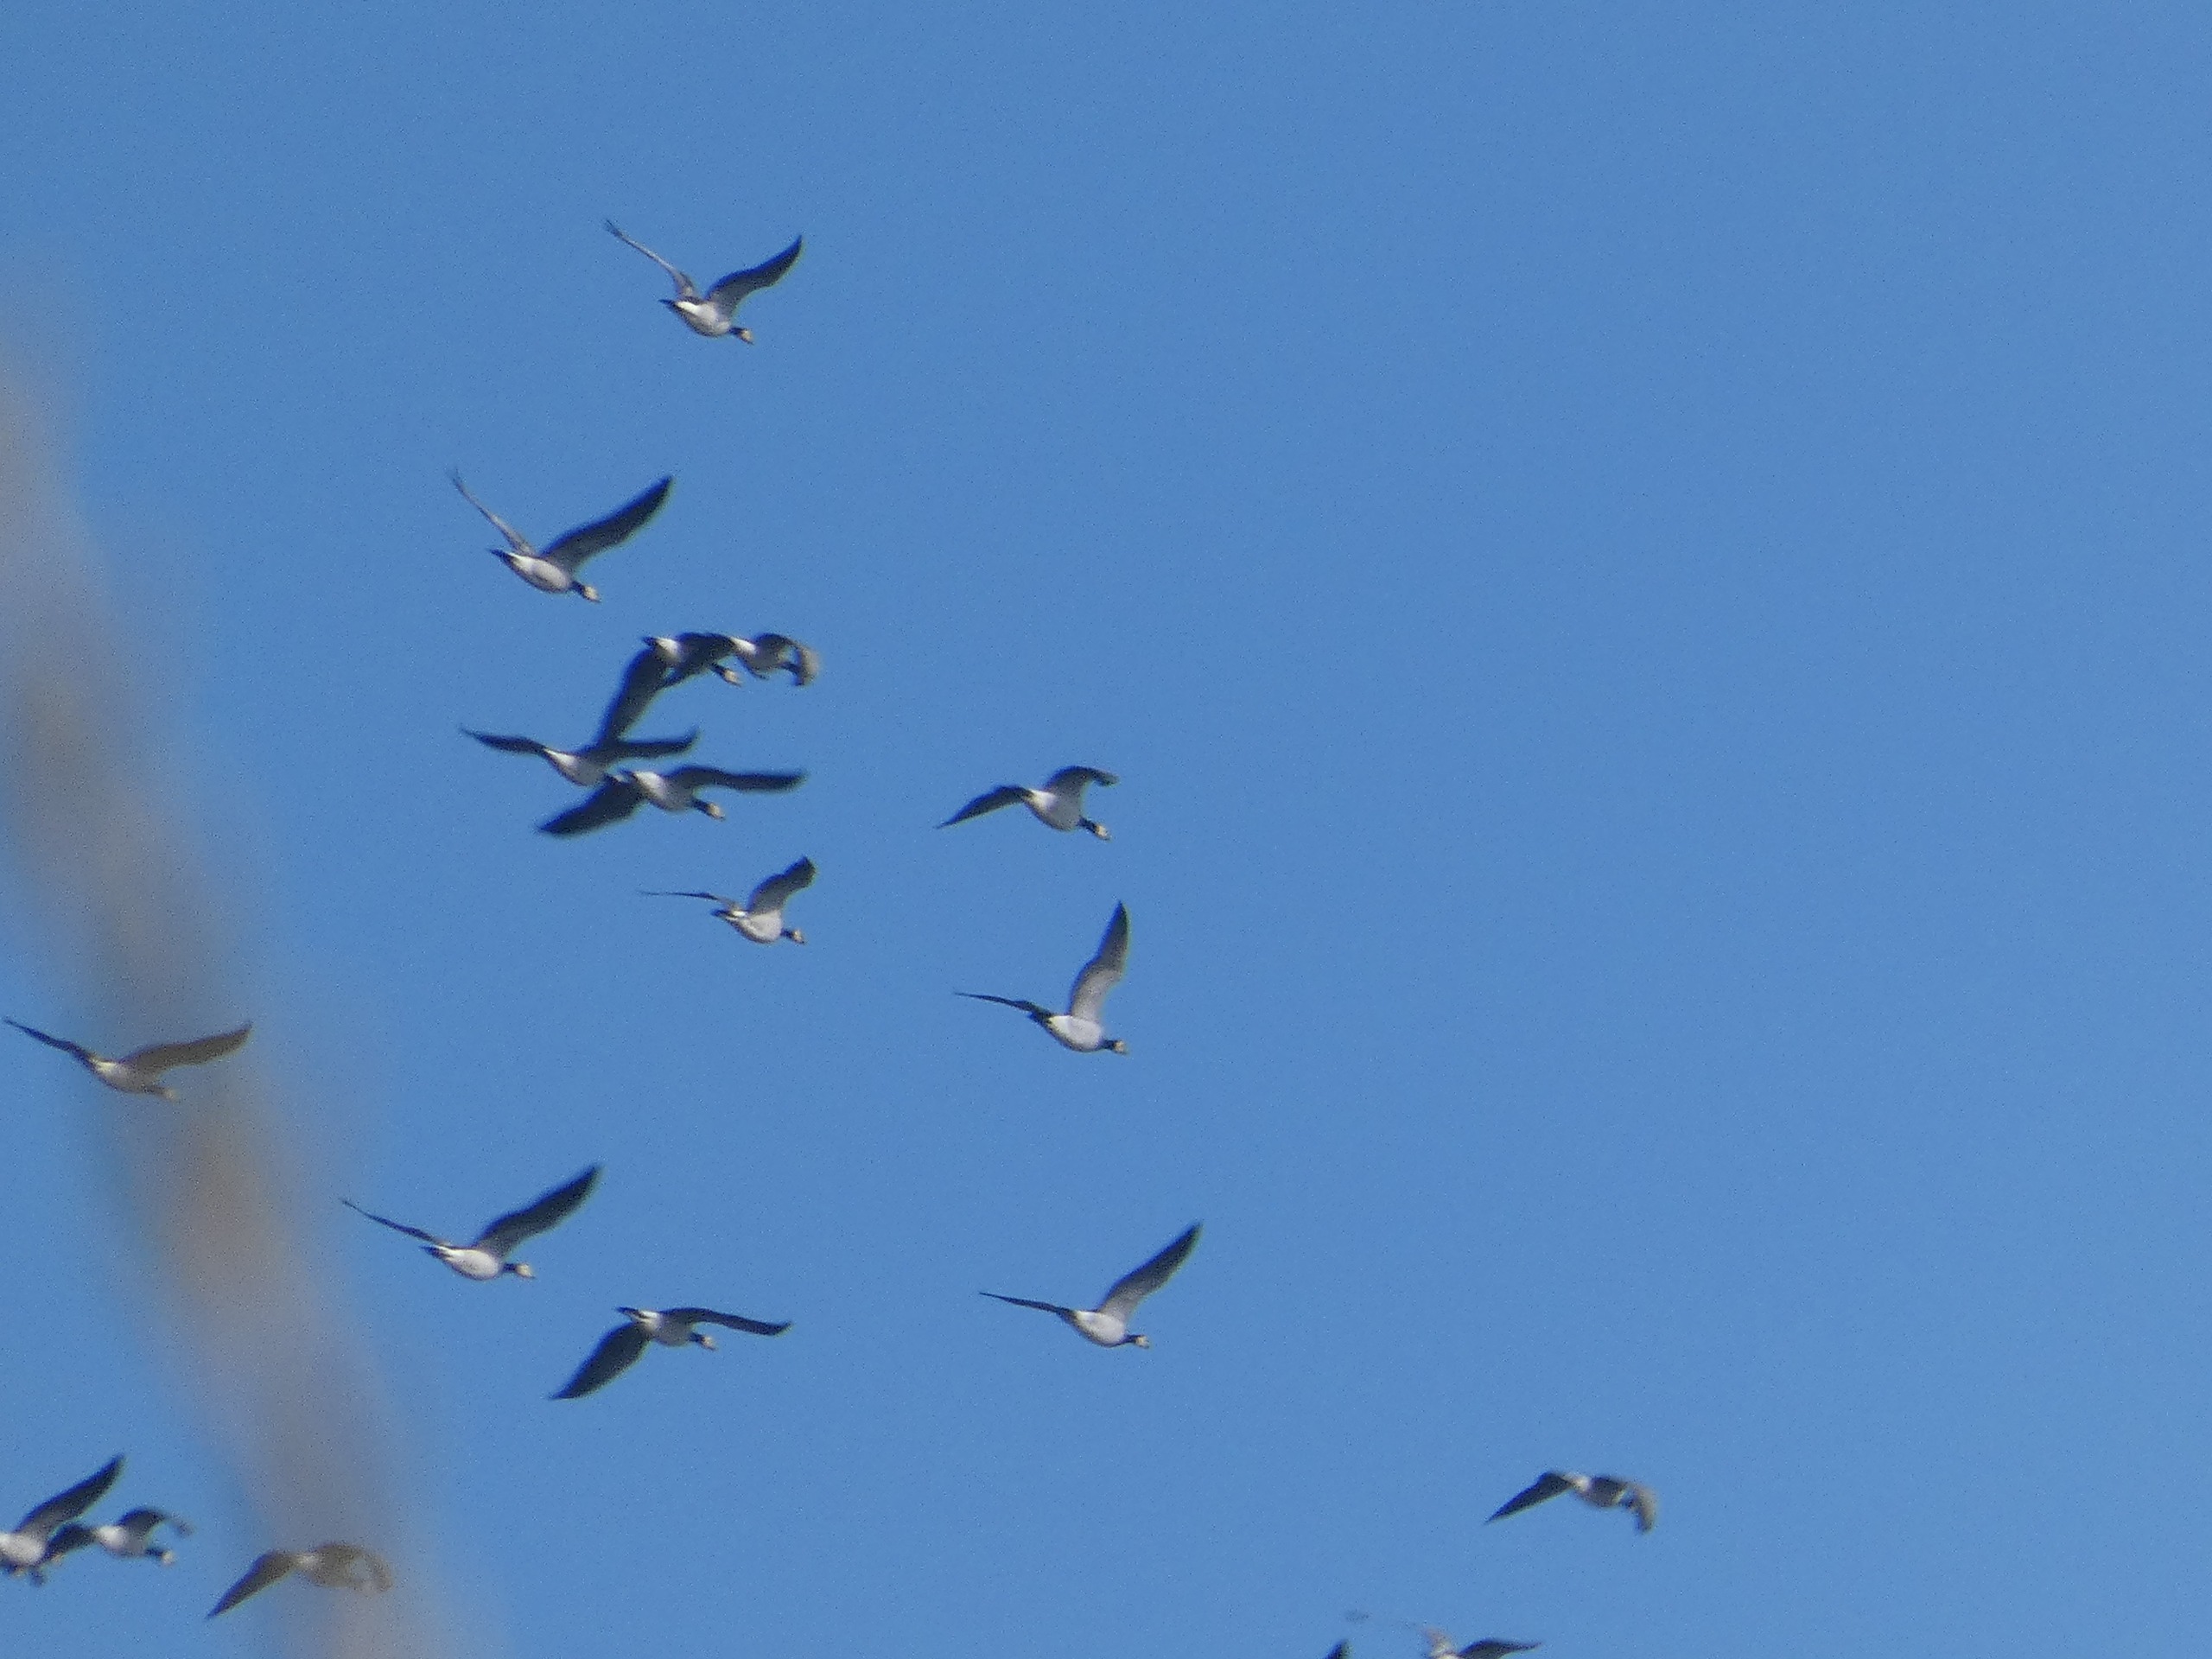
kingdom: Animalia
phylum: Chordata
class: Aves
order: Anseriformes
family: Anatidae
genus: Branta
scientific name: Branta leucopsis
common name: Bramgås
